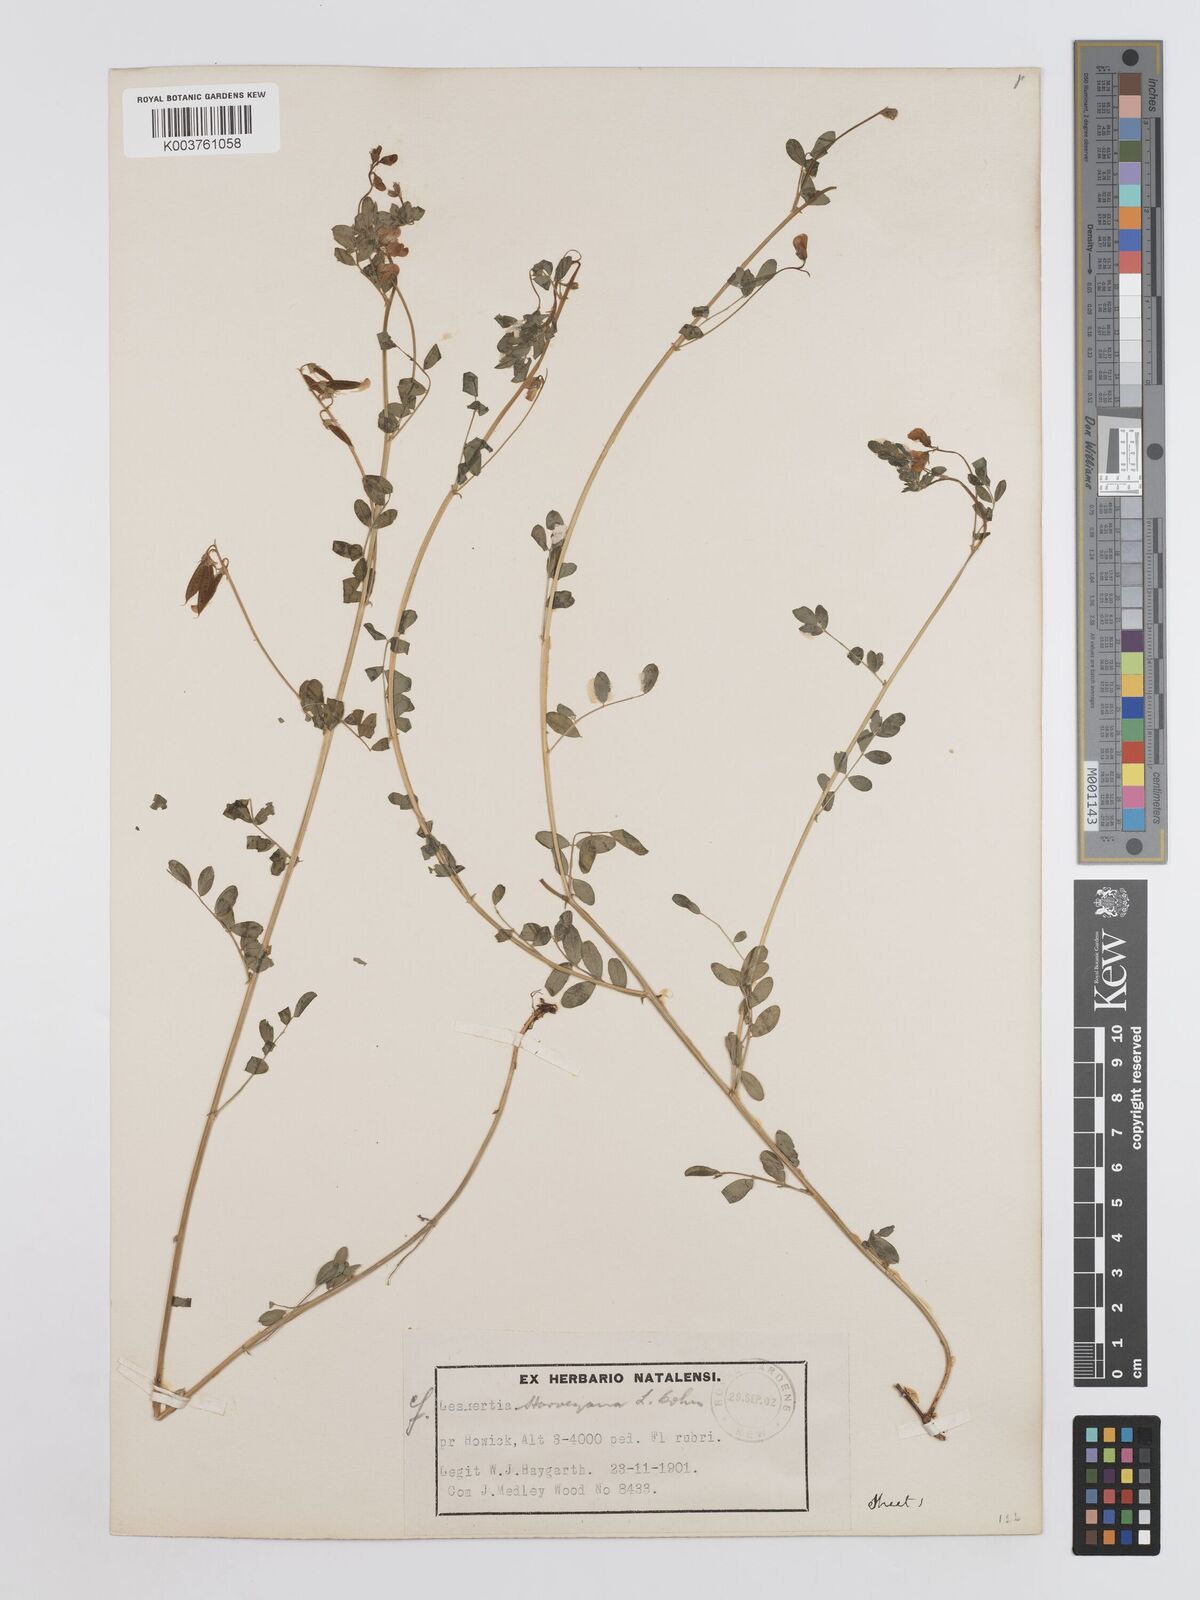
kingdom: Plantae
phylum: Tracheophyta
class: Magnoliopsida
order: Fabales
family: Fabaceae
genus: Lessertia
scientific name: Lessertia harveyana
